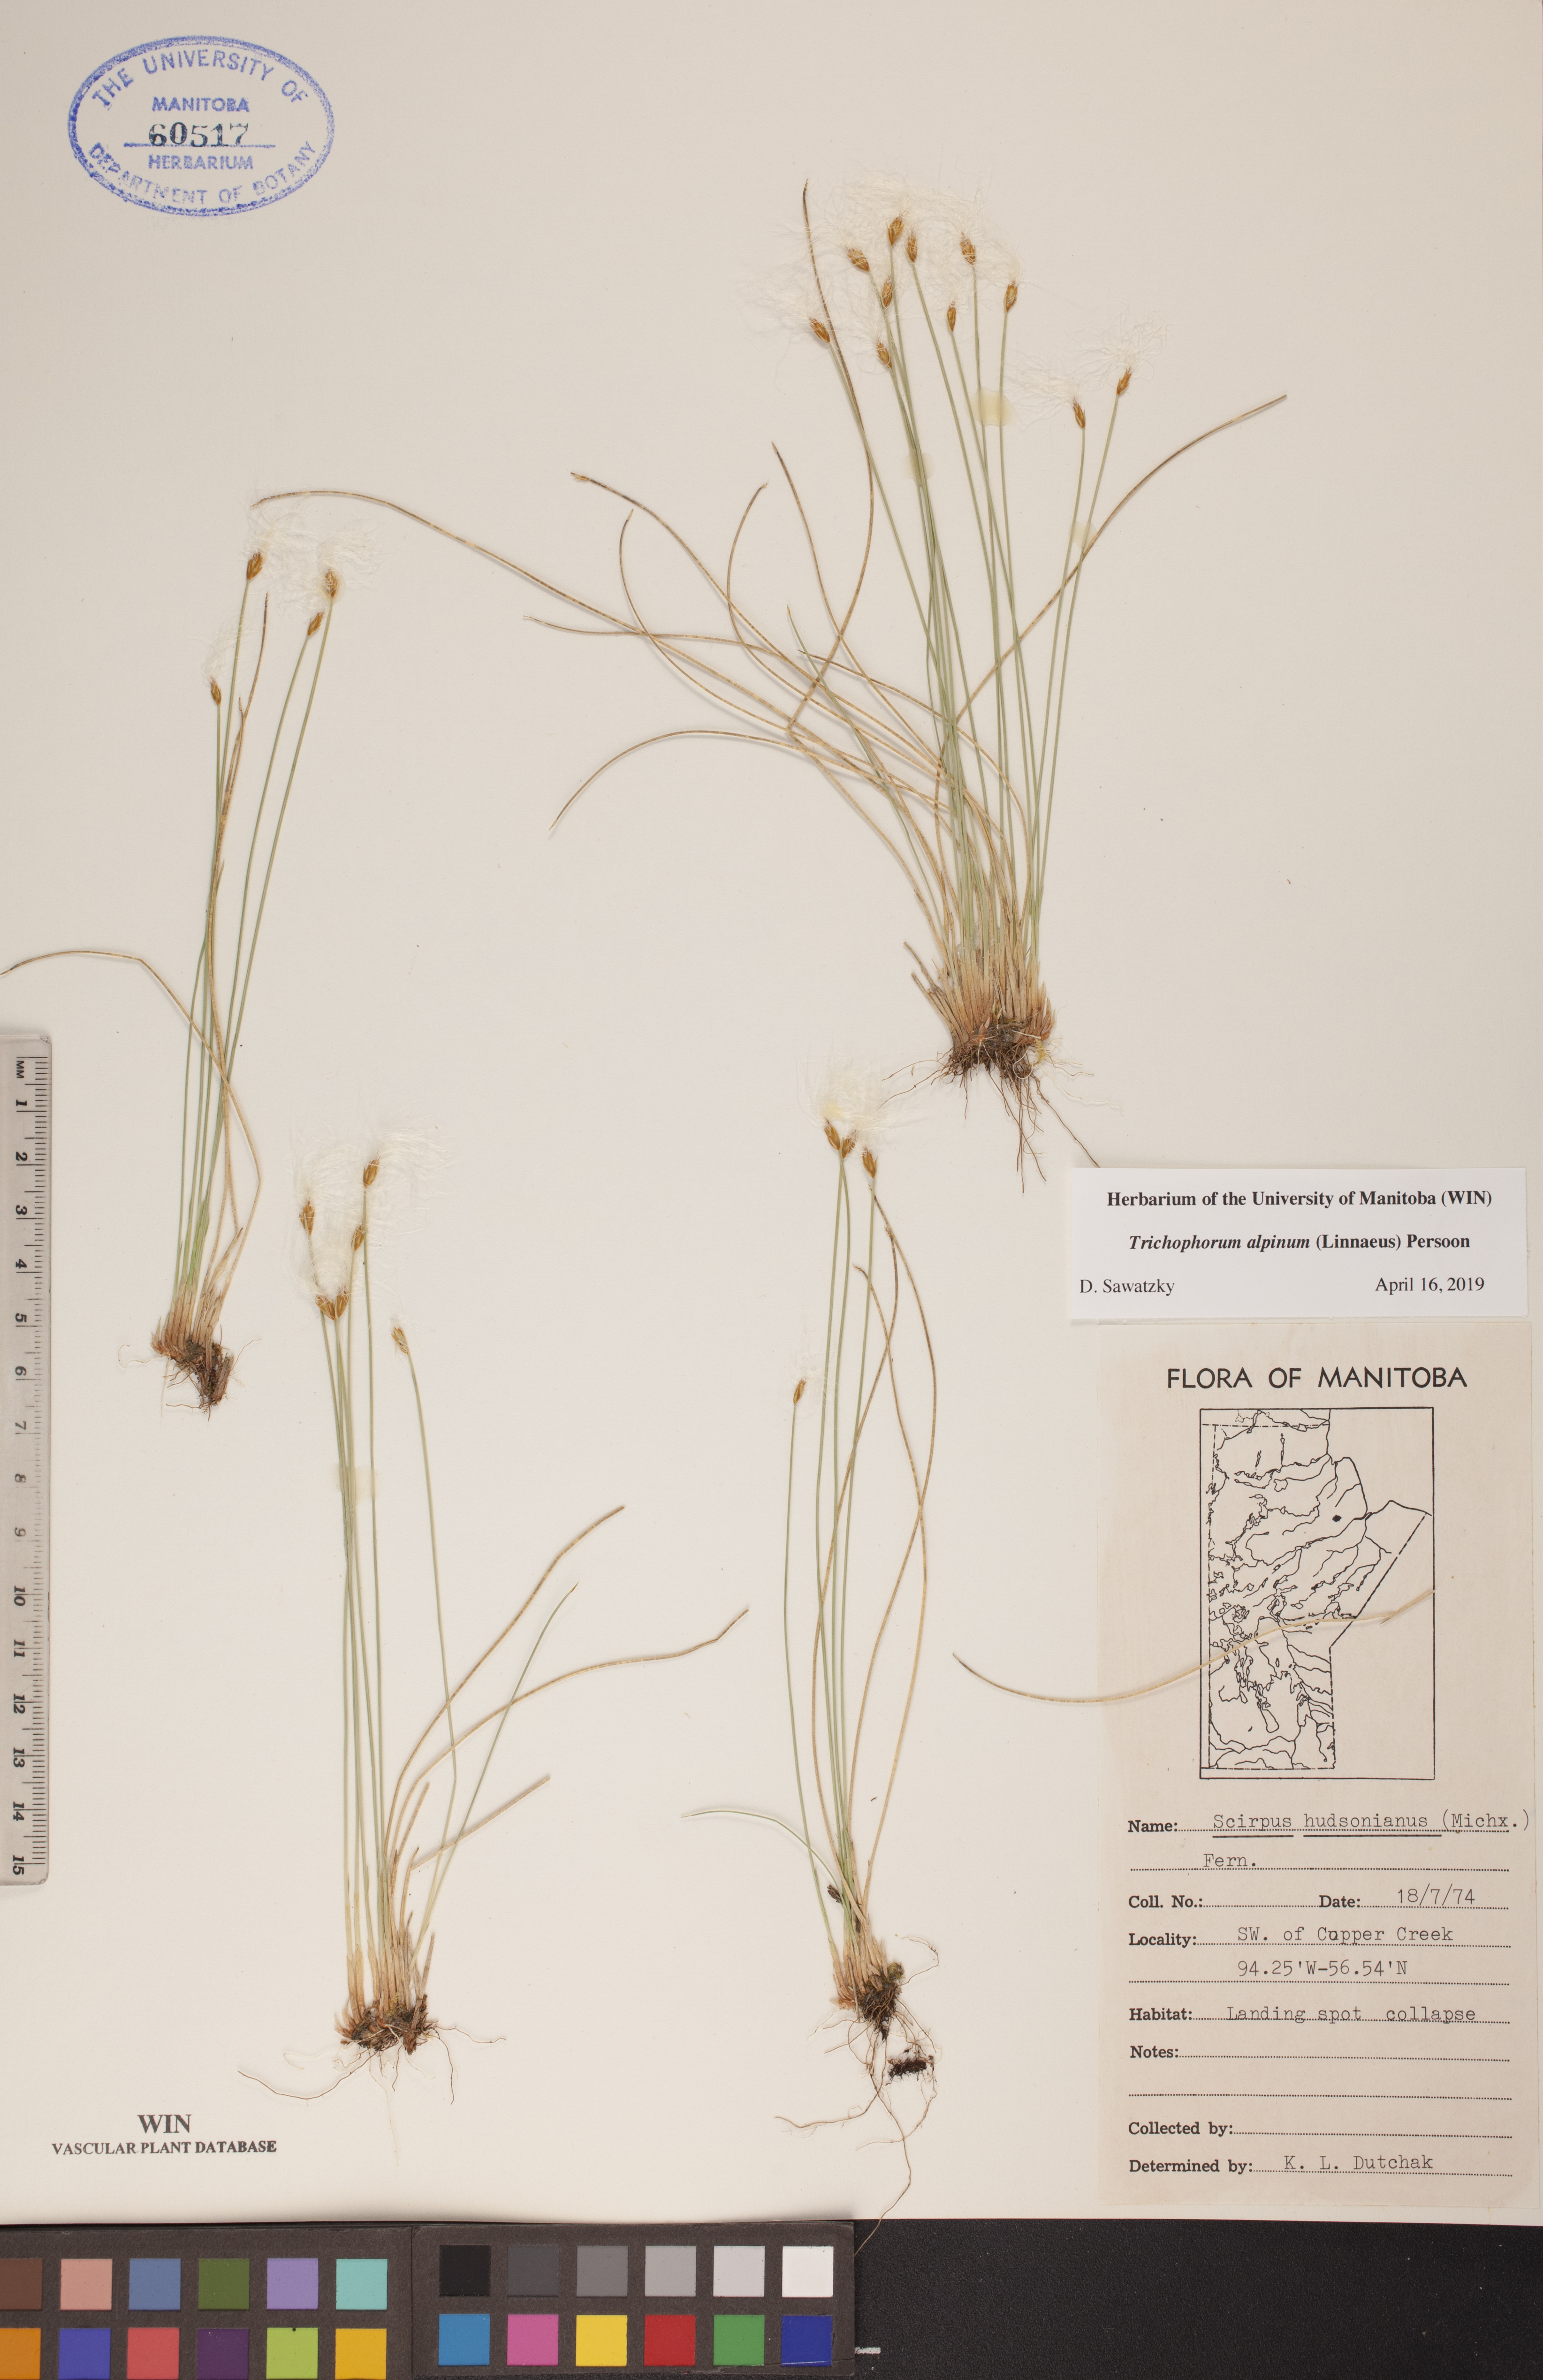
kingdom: Plantae
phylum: Tracheophyta
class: Liliopsida
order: Poales
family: Cyperaceae
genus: Trichophorum
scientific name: Trichophorum alpinum
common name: Alpine bulrush
